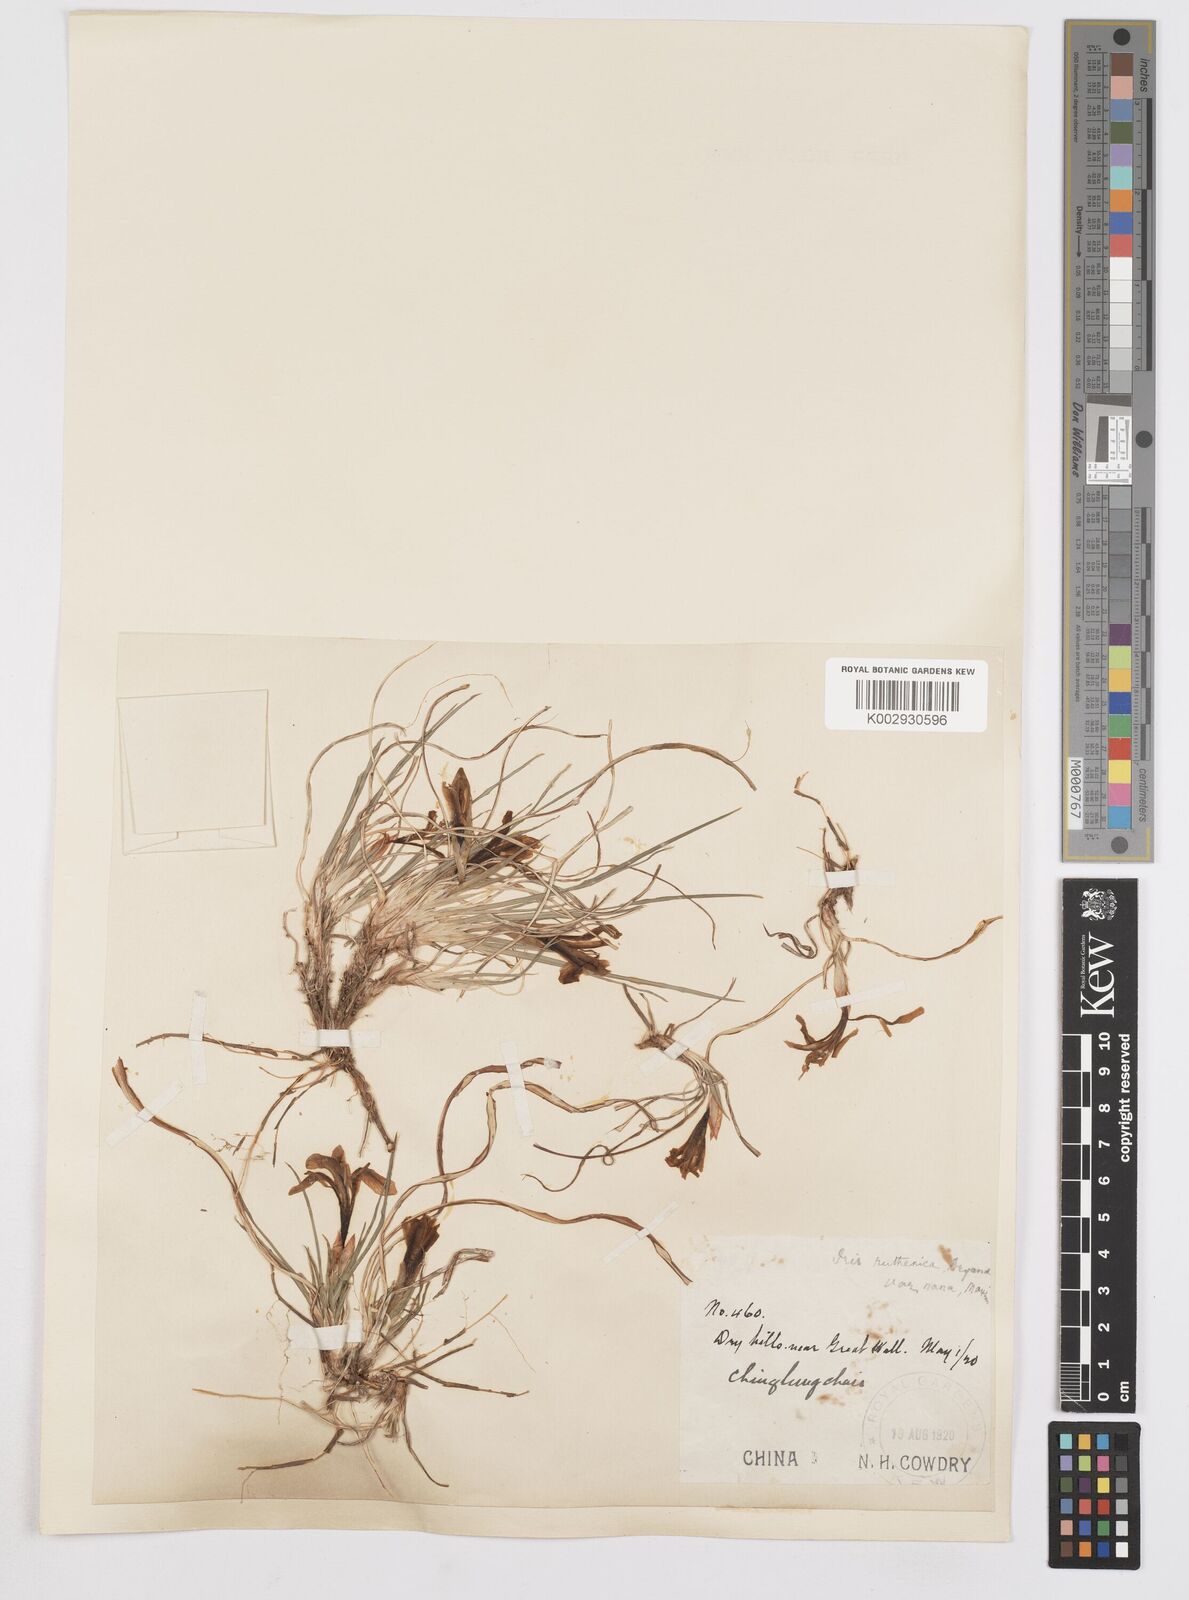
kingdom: Plantae
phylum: Tracheophyta
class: Liliopsida
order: Asparagales
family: Iridaceae
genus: Iris
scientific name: Iris
